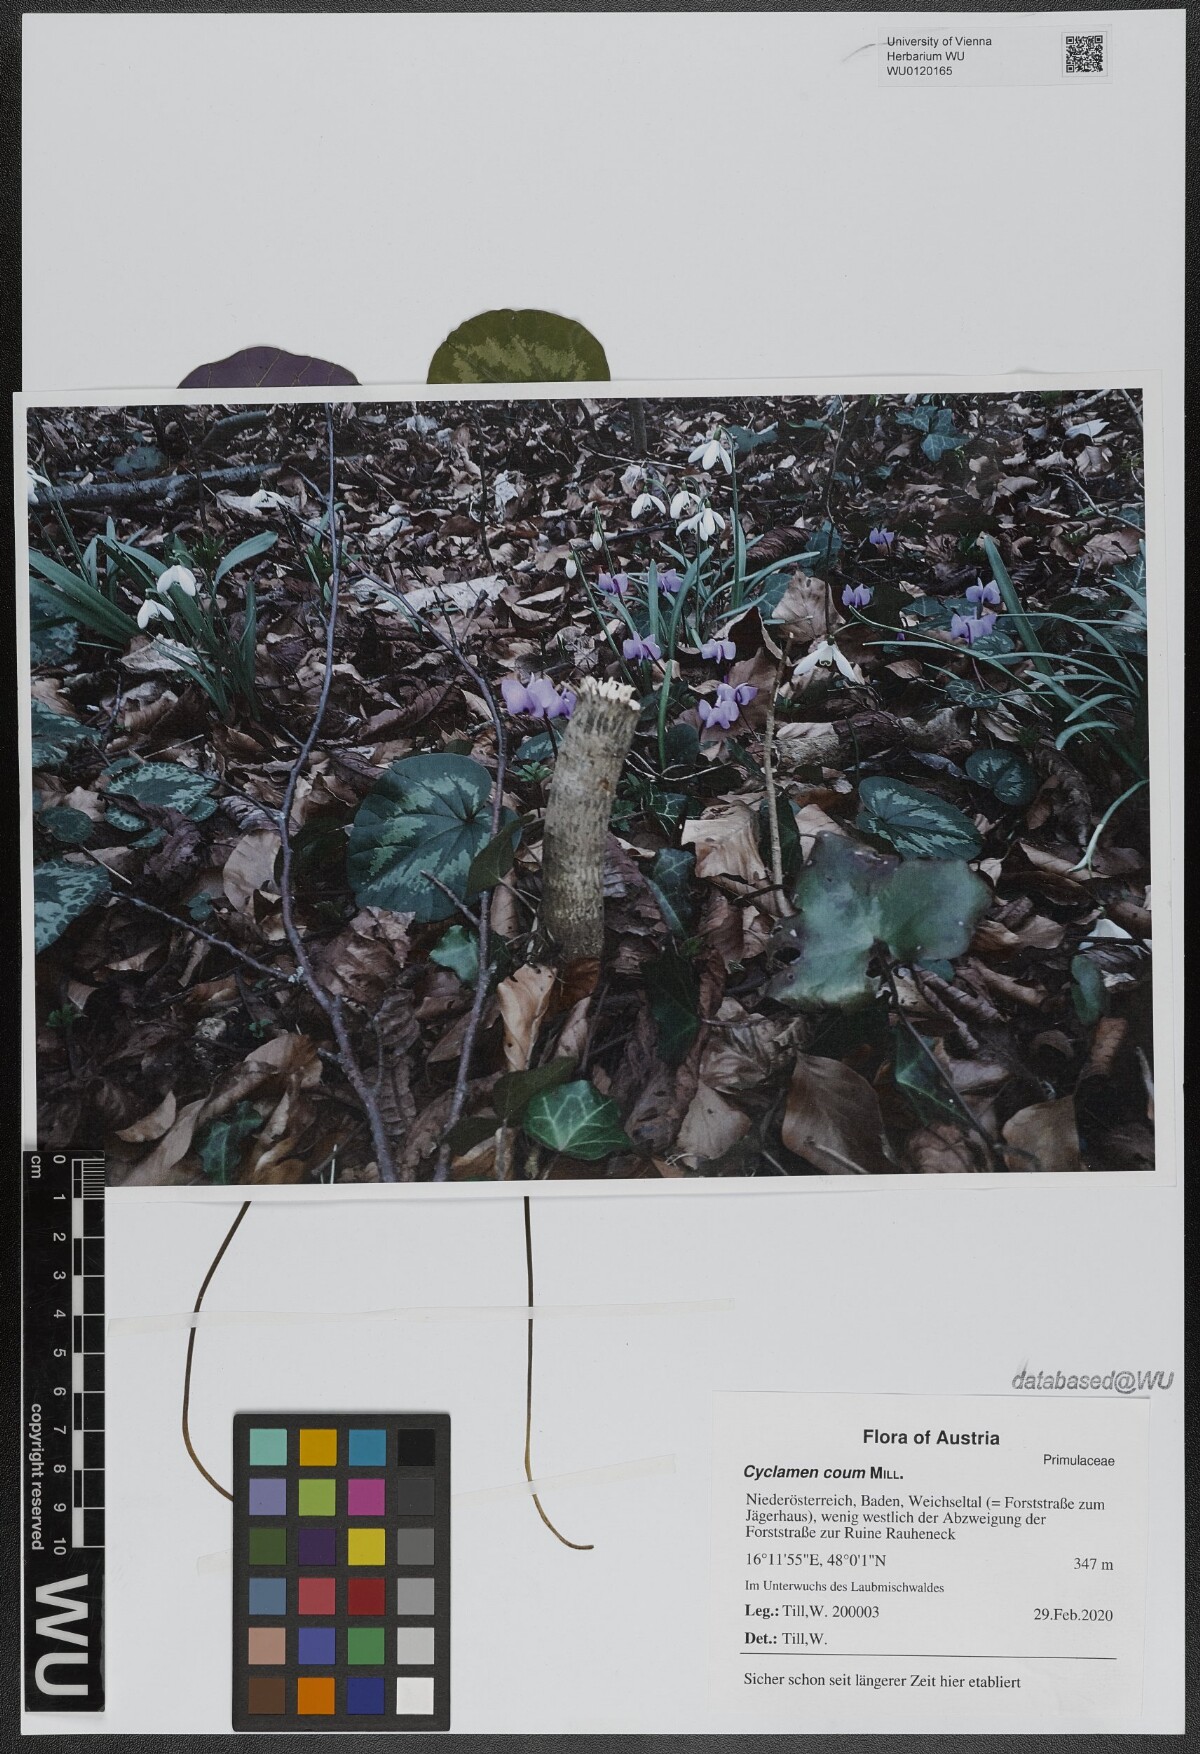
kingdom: Plantae
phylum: Tracheophyta
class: Magnoliopsida
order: Ericales
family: Primulaceae
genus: Cyclamen
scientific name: Cyclamen coum
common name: Eastern sowbread
